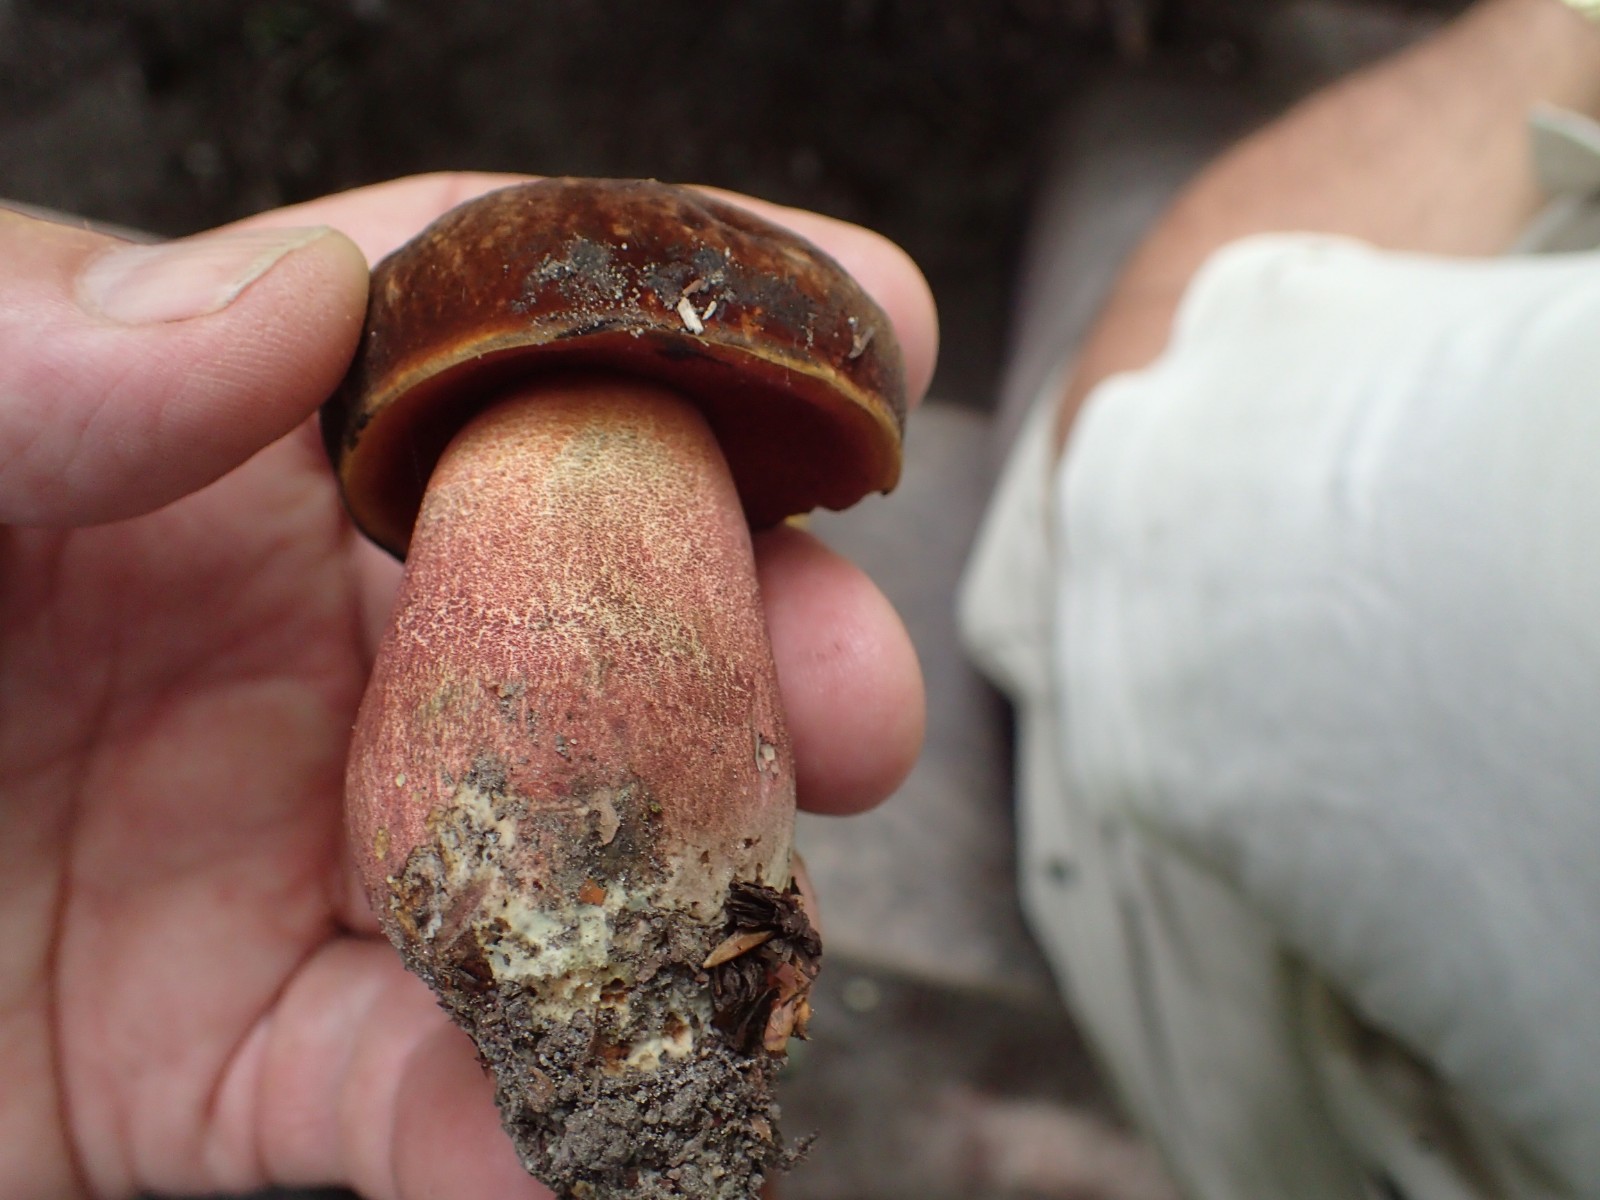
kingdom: Fungi
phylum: Basidiomycota
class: Agaricomycetes
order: Boletales
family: Boletaceae
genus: Neoboletus
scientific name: Neoboletus erythropus
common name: punktstokket indigorørhat
